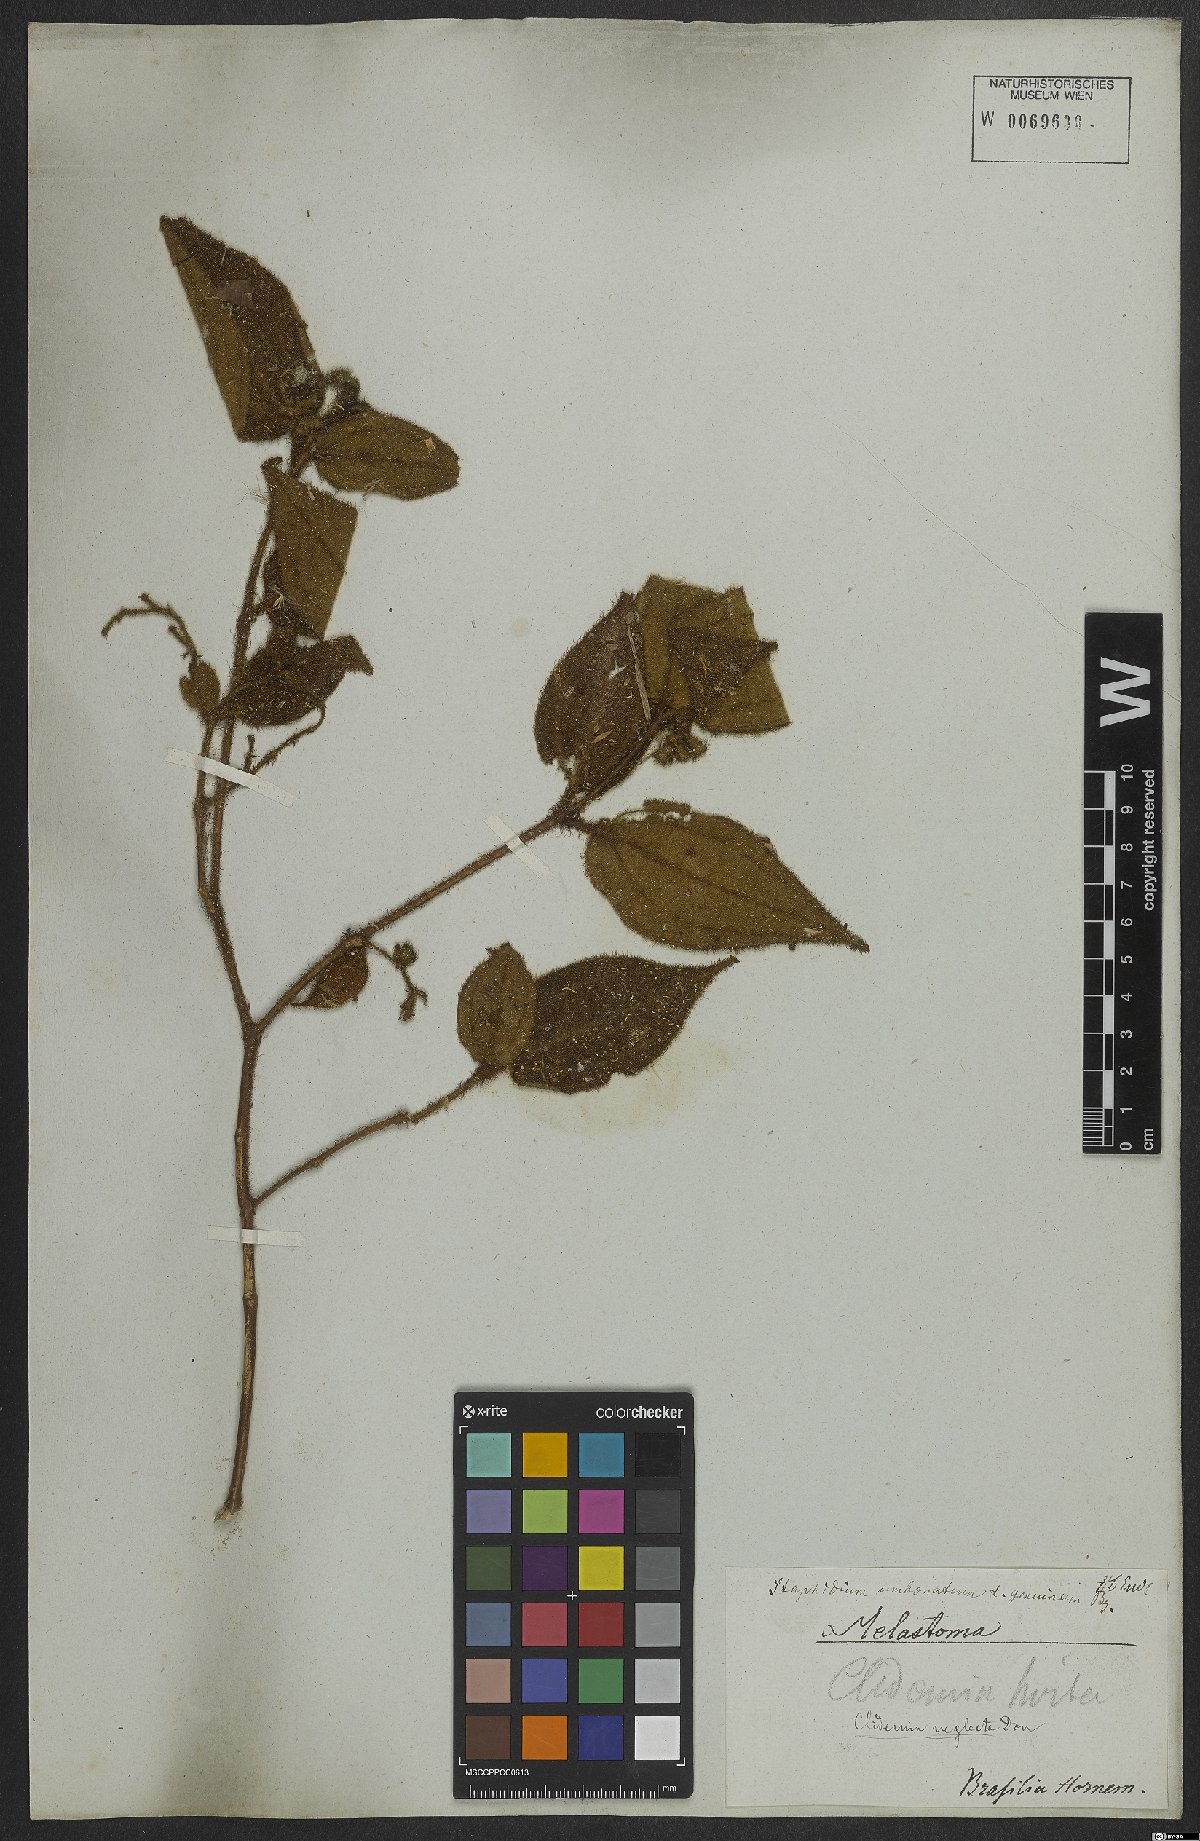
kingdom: Plantae
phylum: Tracheophyta
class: Magnoliopsida
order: Myrtales
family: Melastomataceae
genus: Miconia
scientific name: Miconia dependens
